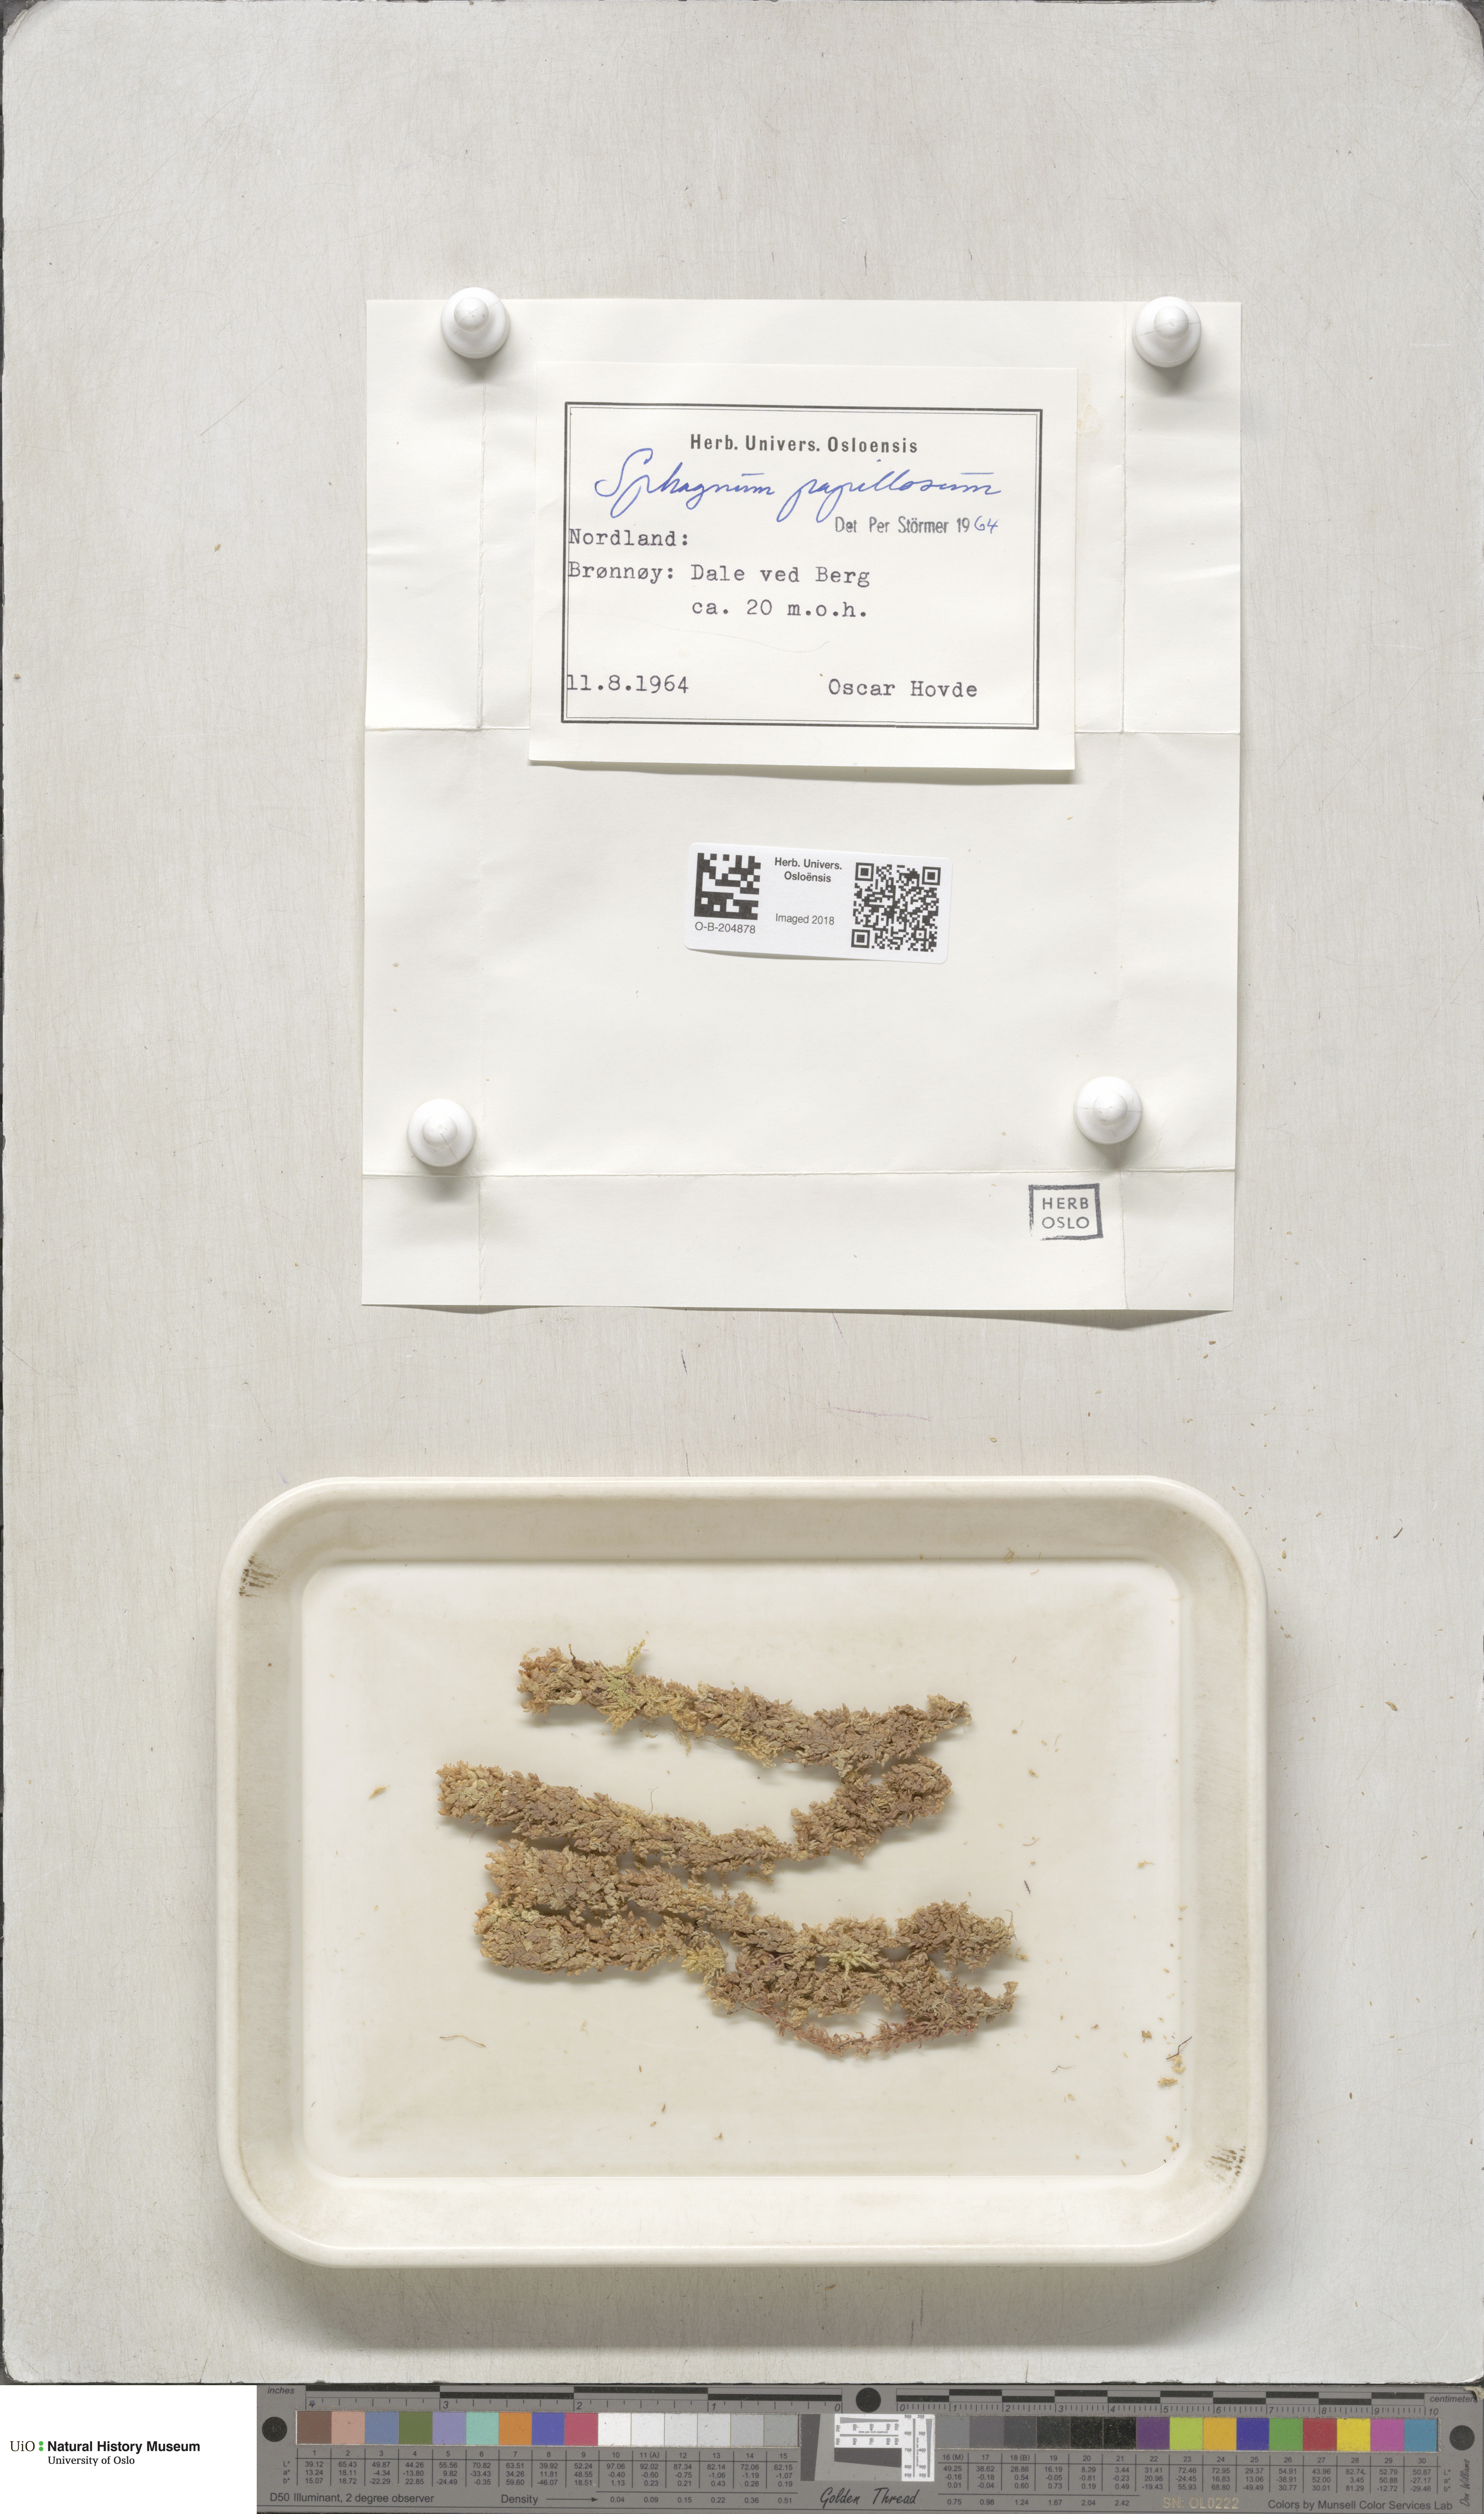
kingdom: Plantae
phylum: Bryophyta
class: Sphagnopsida
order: Sphagnales
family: Sphagnaceae
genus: Sphagnum
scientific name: Sphagnum papillosum
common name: Papillose peat moss
